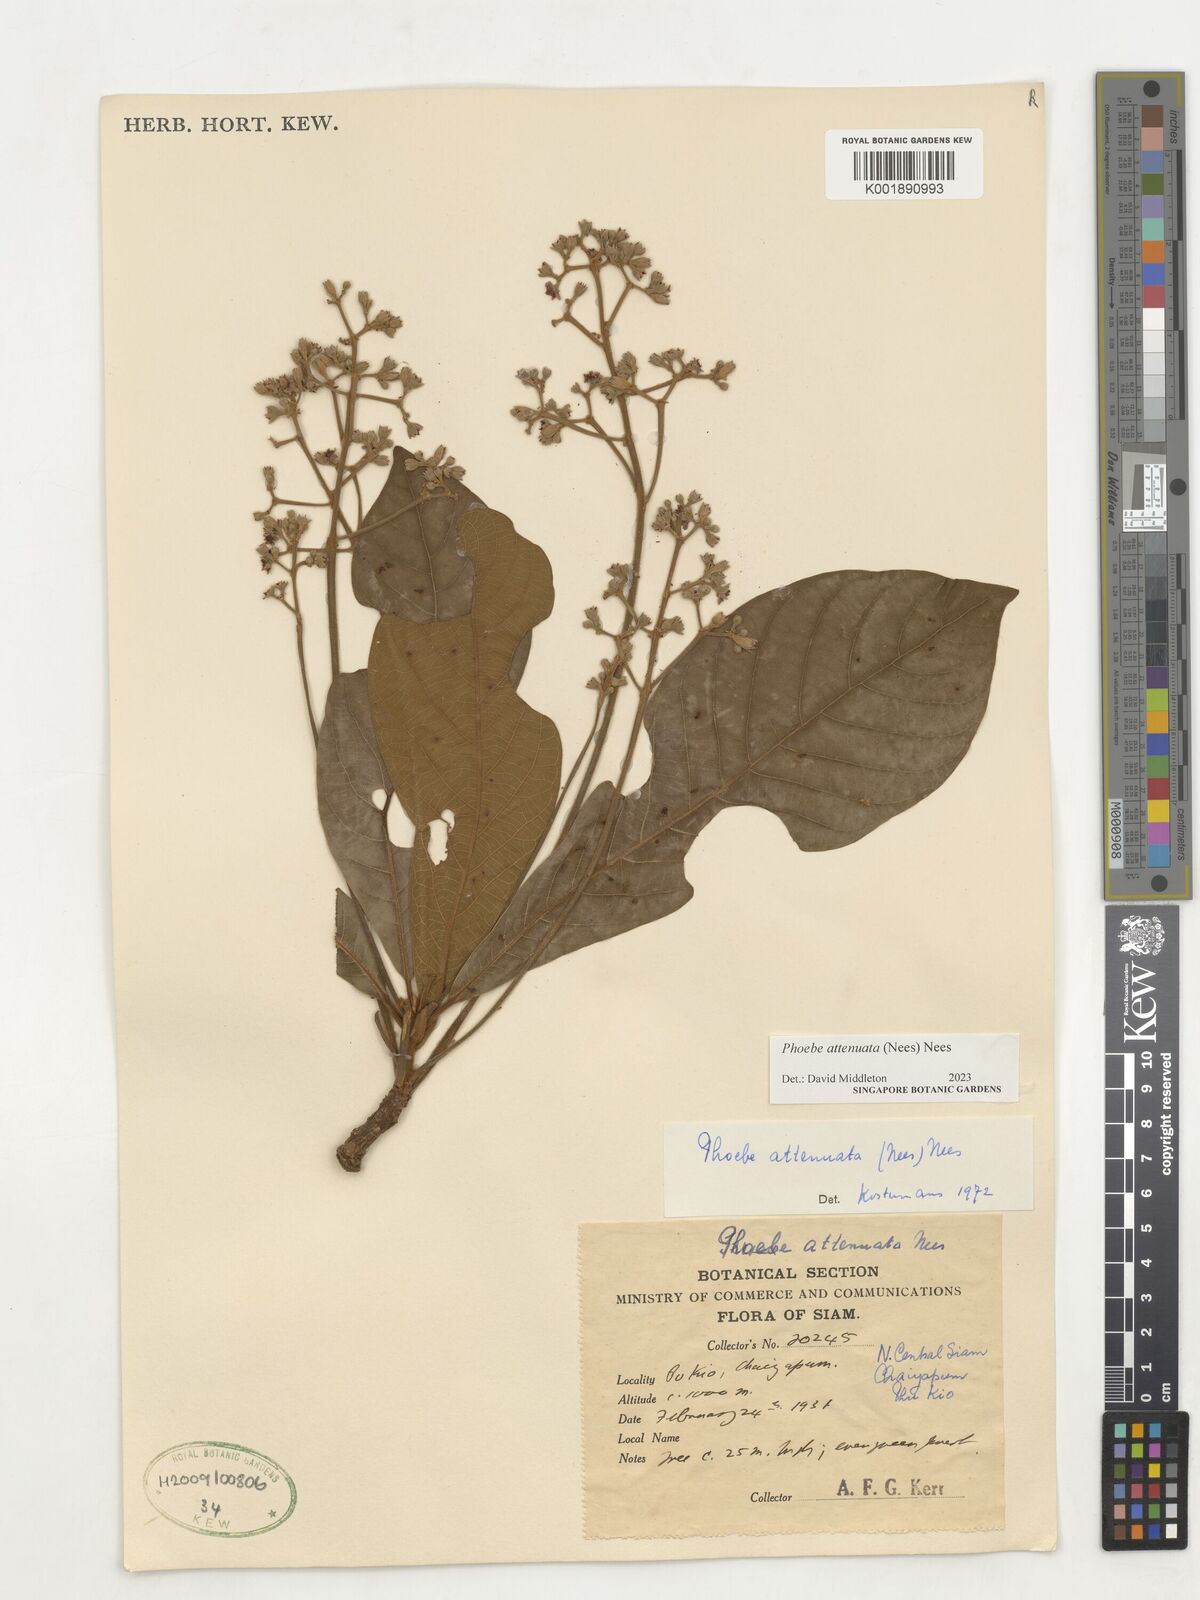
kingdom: Plantae
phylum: Tracheophyta
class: Magnoliopsida
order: Laurales
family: Lauraceae
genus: Phoebe
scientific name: Phoebe attenuata
